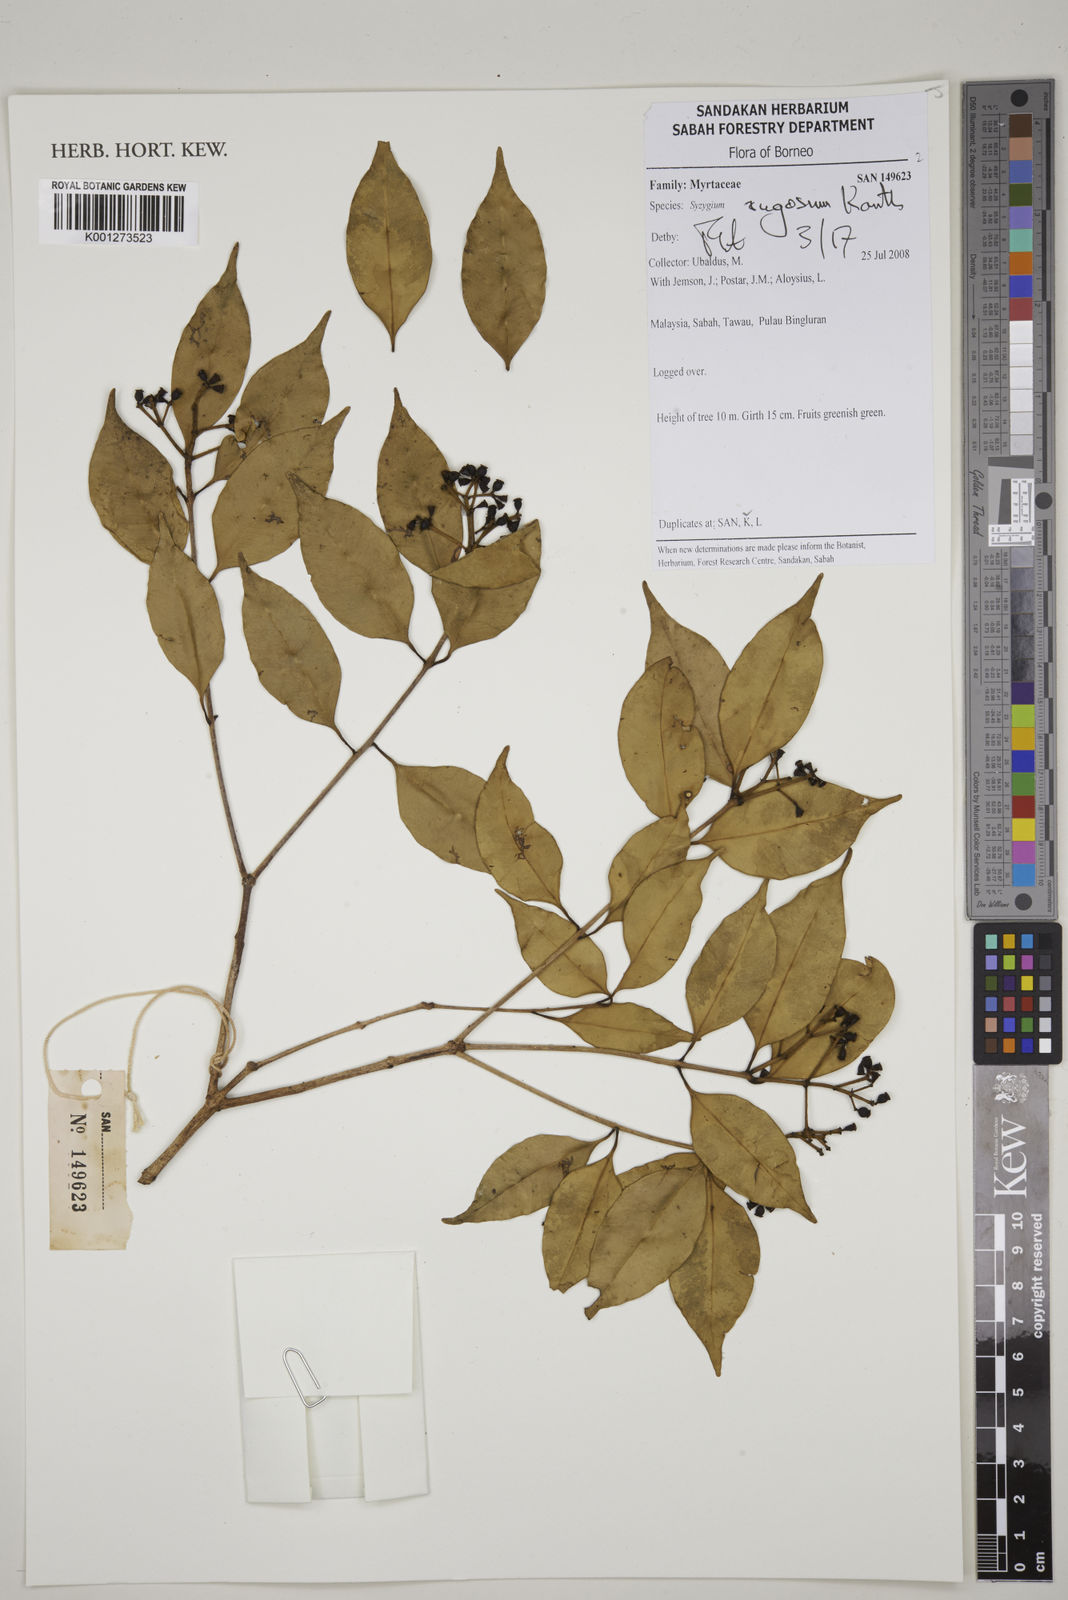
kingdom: Plantae
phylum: Tracheophyta
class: Magnoliopsida
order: Myrtales
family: Myrtaceae
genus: Syzygium
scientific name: Syzygium rugosum
